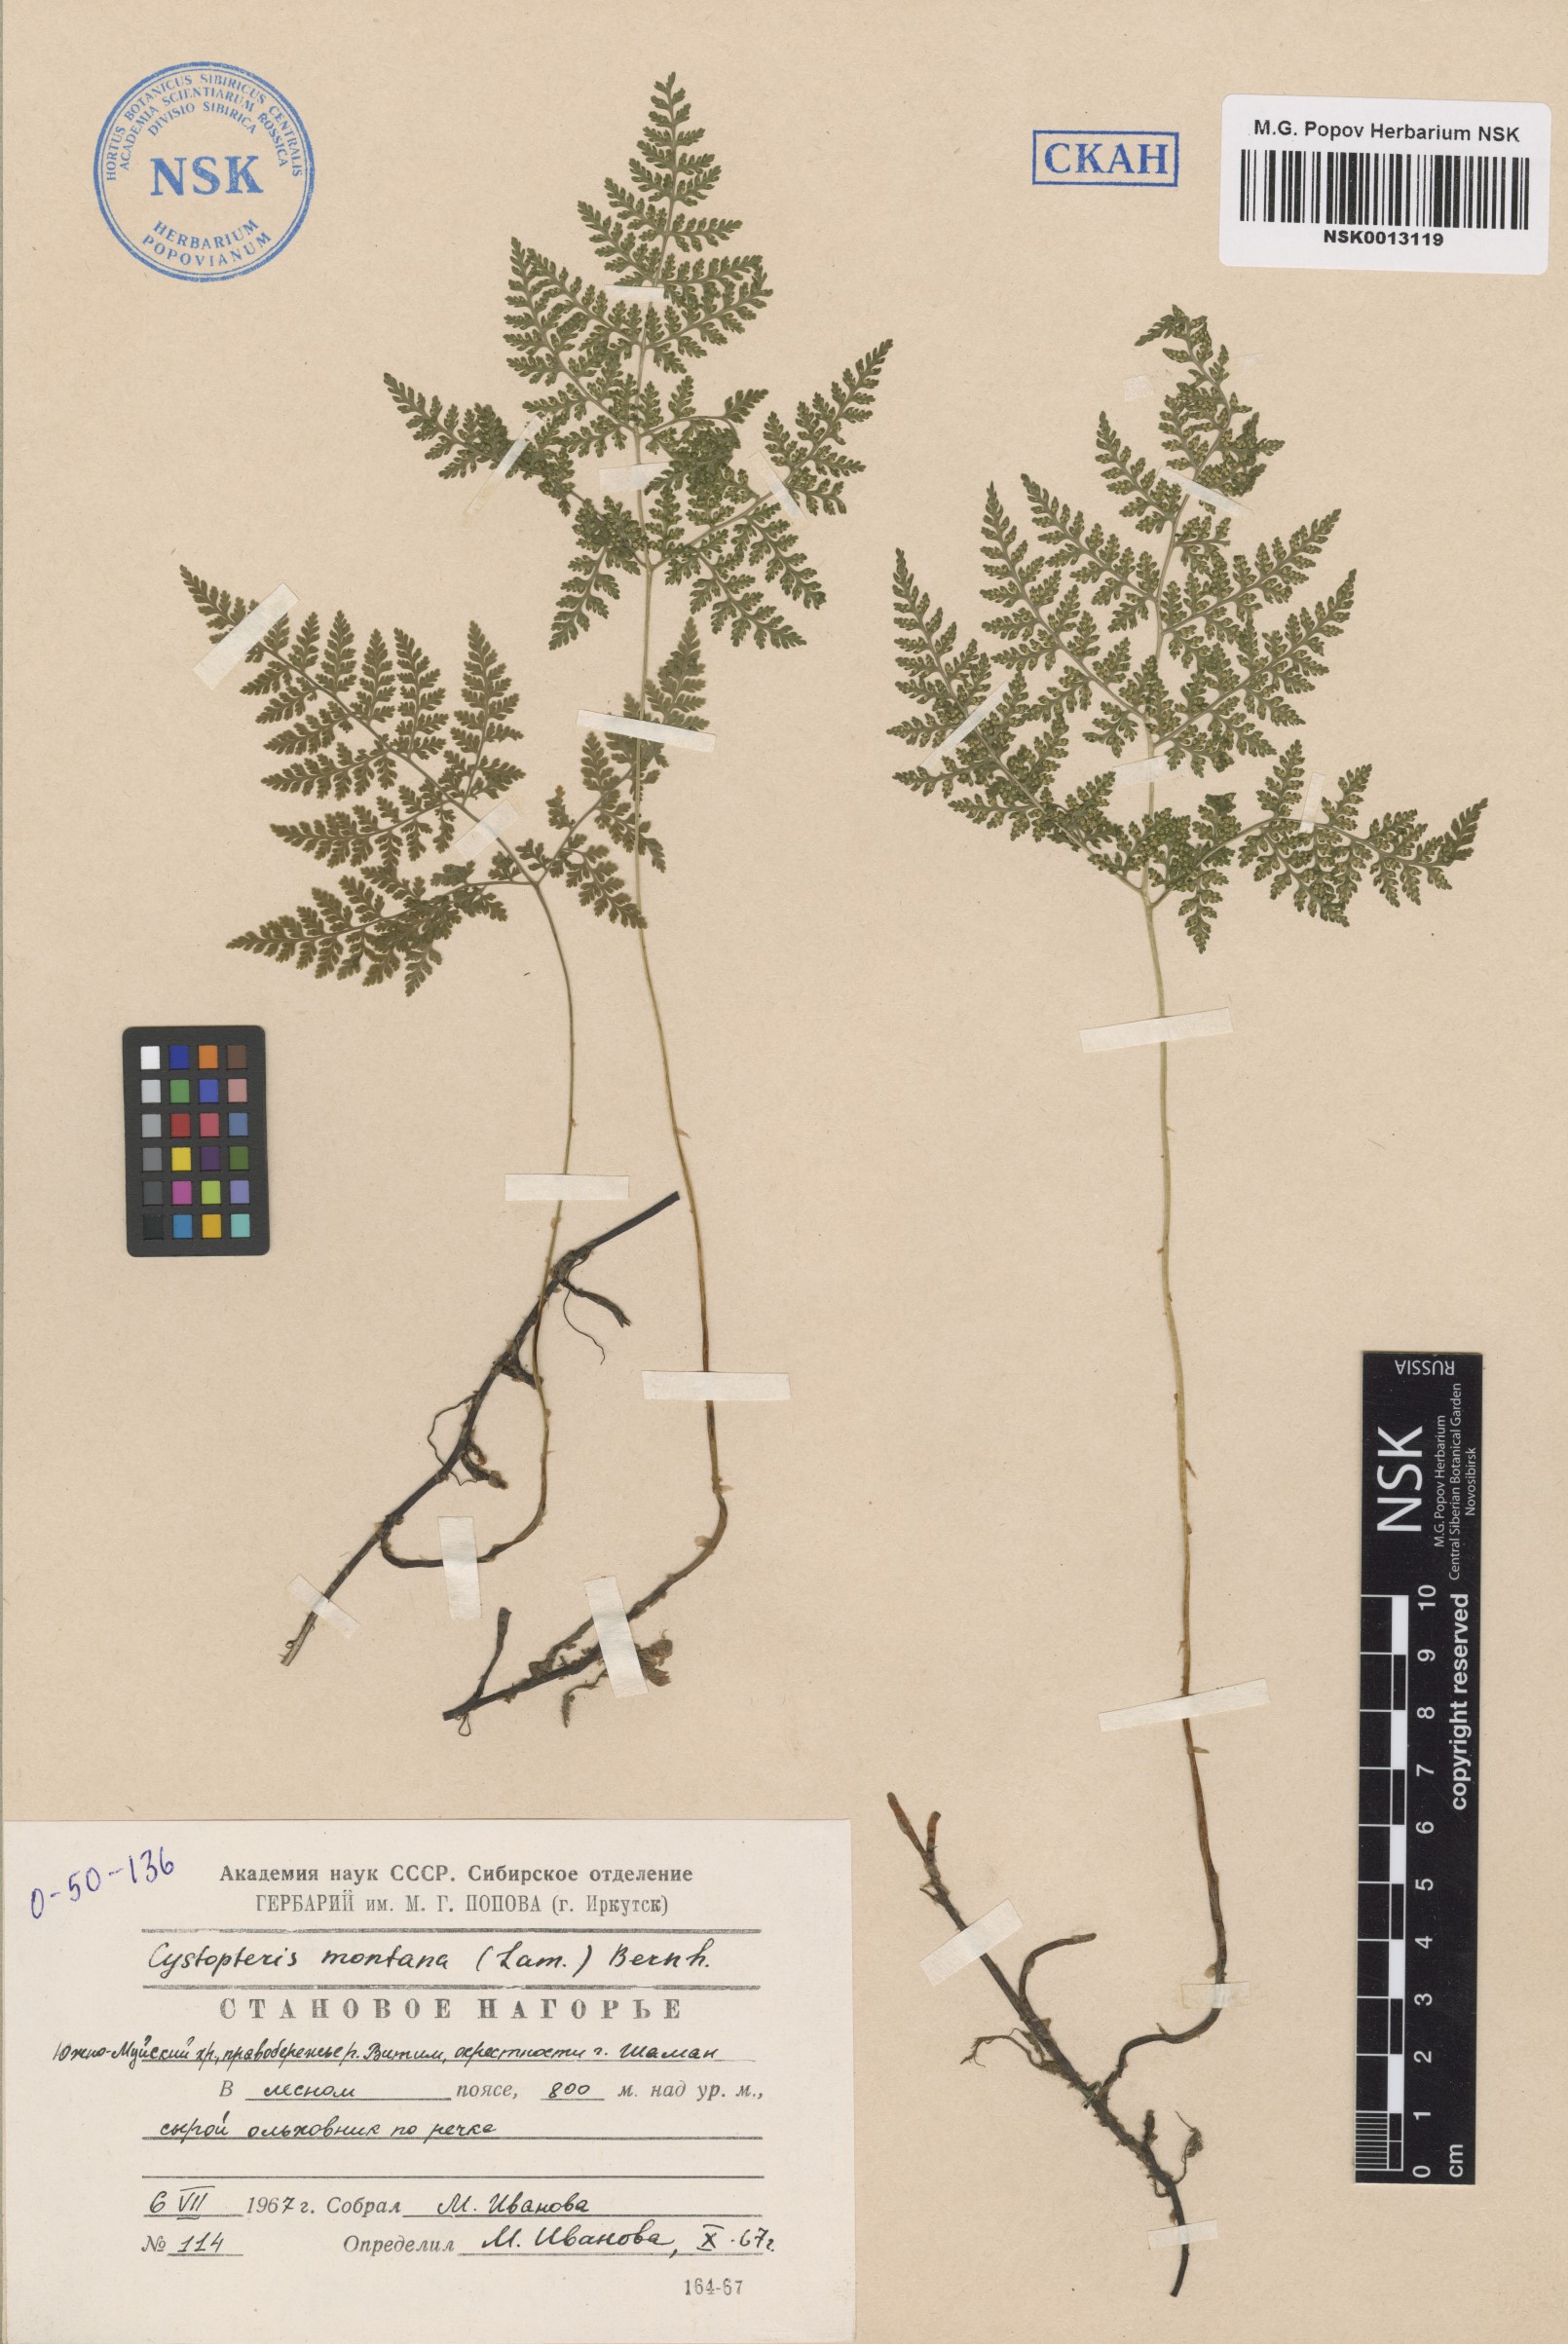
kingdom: Plantae
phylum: Tracheophyta
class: Polypodiopsida
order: Polypodiales
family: Cystopteridaceae
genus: Cystopteris
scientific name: Cystopteris montana
